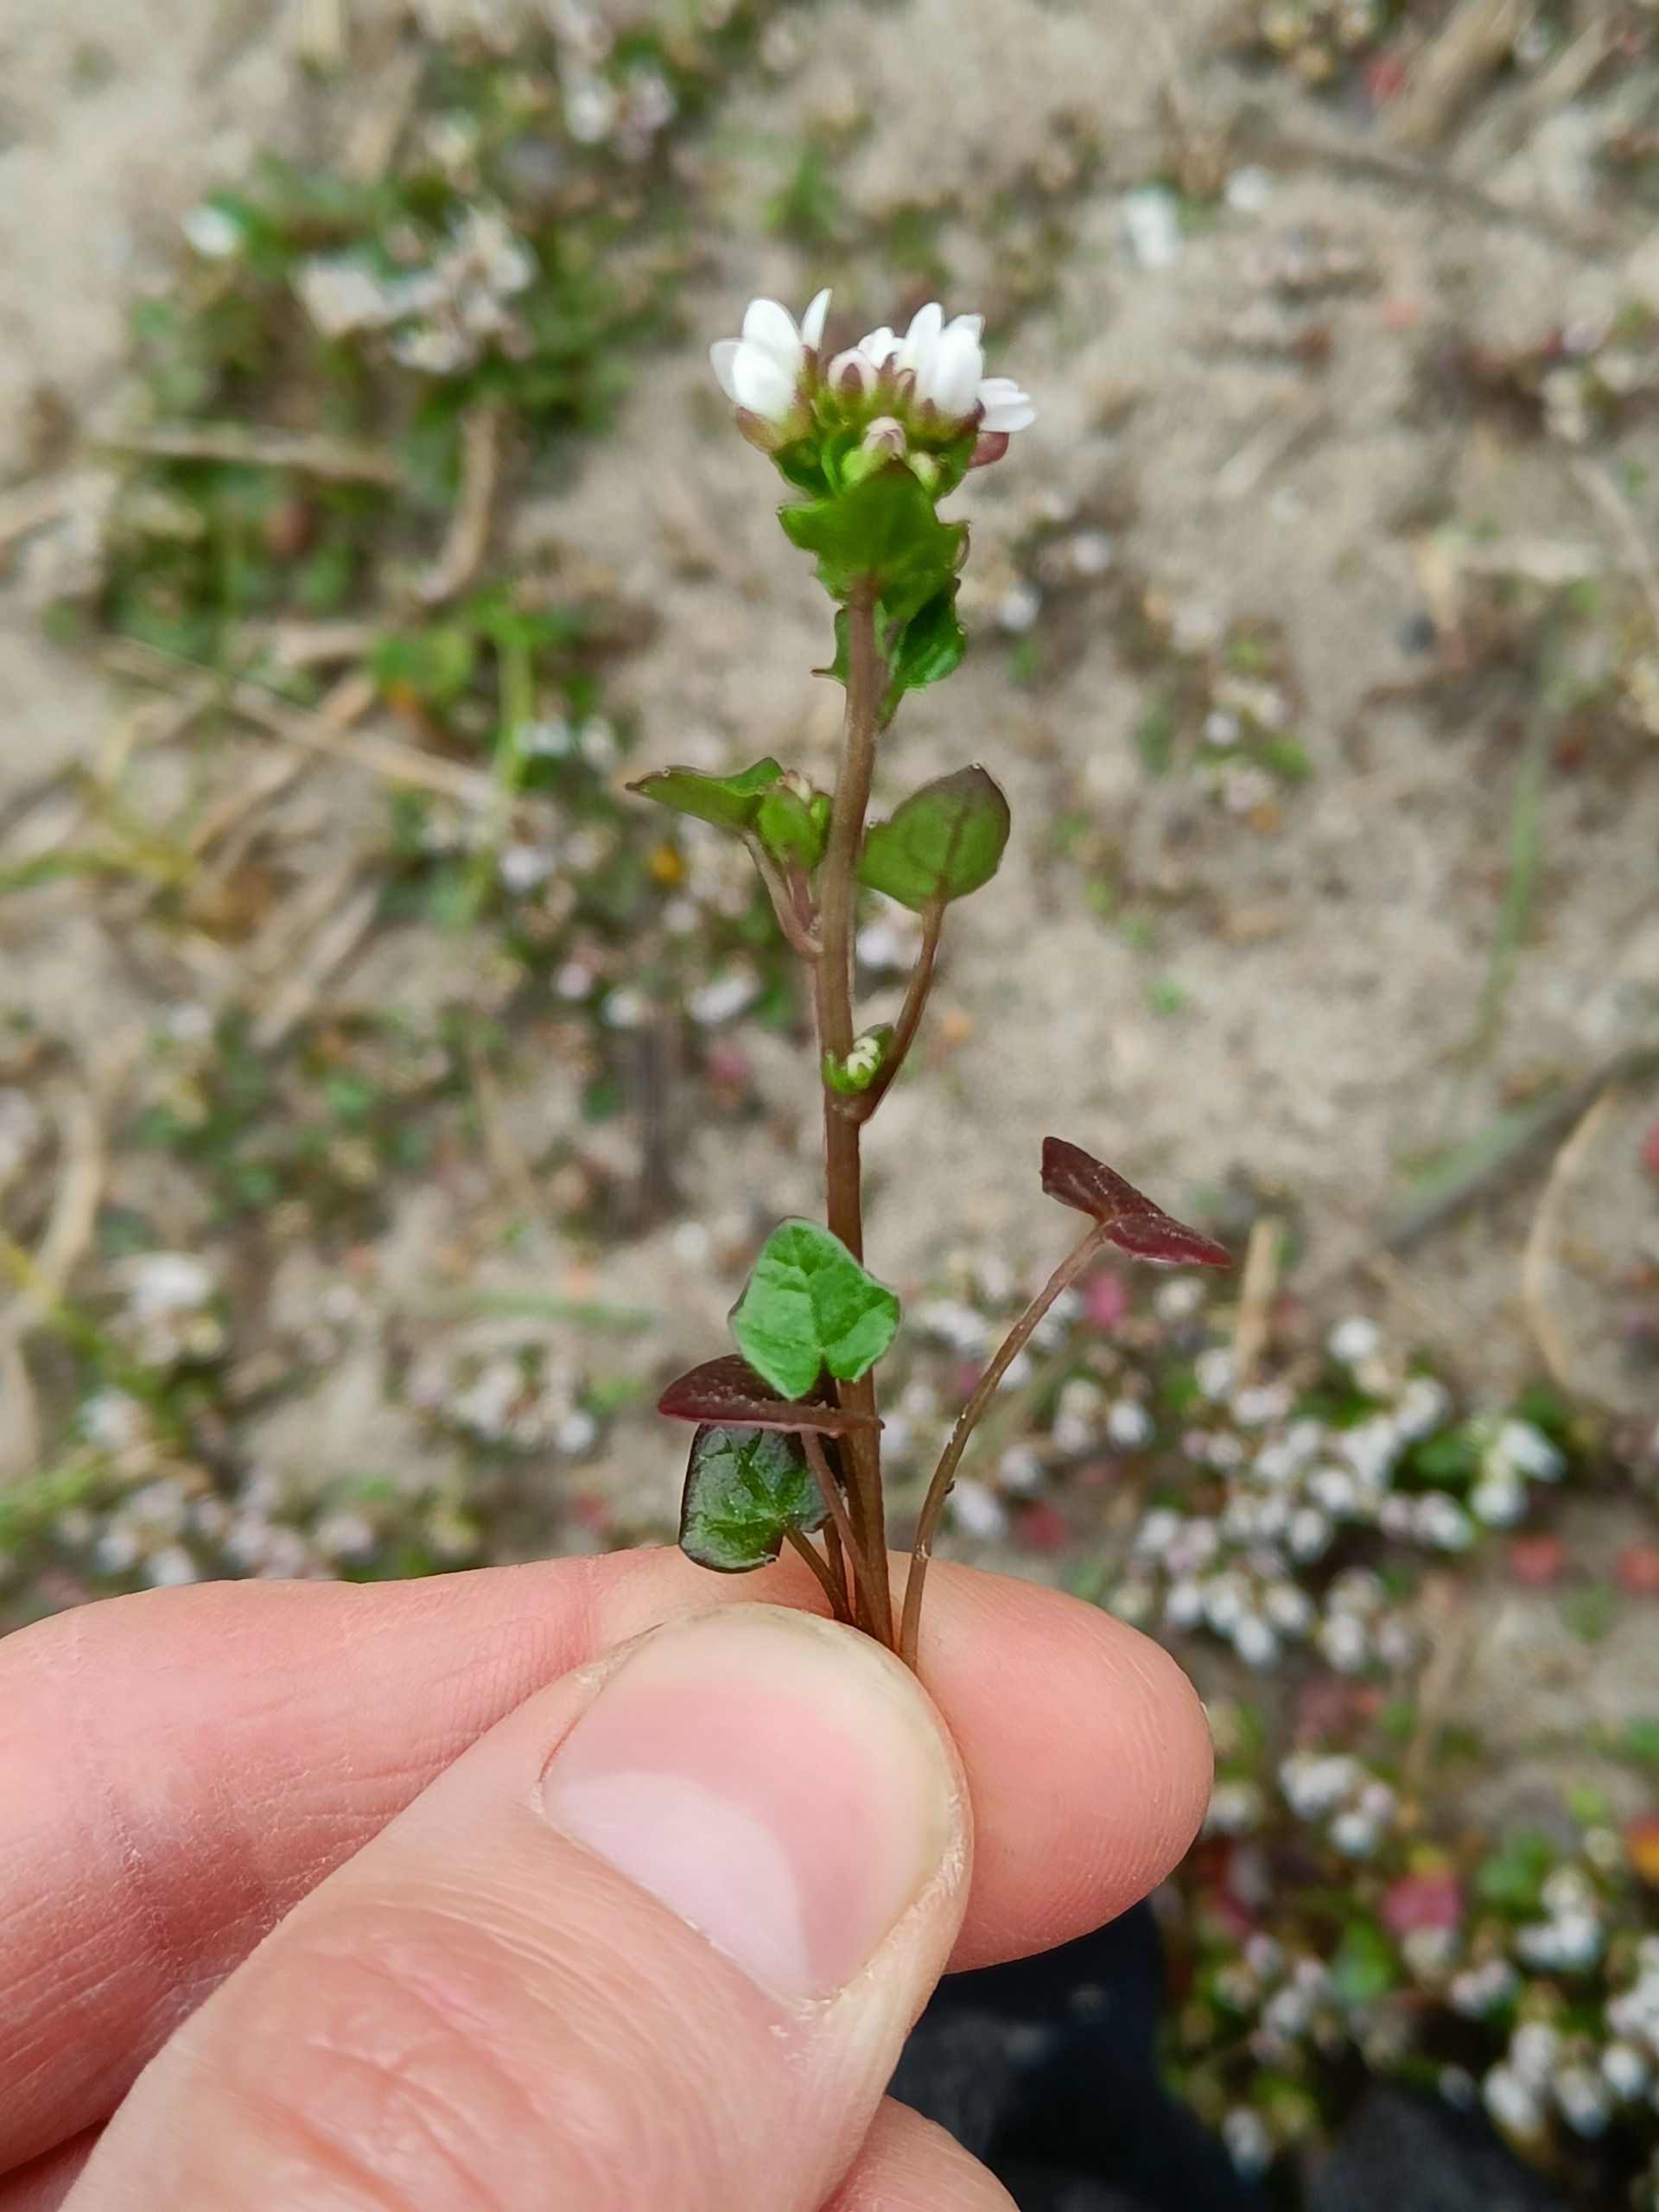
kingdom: Plantae
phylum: Tracheophyta
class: Magnoliopsida
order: Brassicales
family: Brassicaceae
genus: Cochlearia
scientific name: Cochlearia danica
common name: Dansk kokleare
